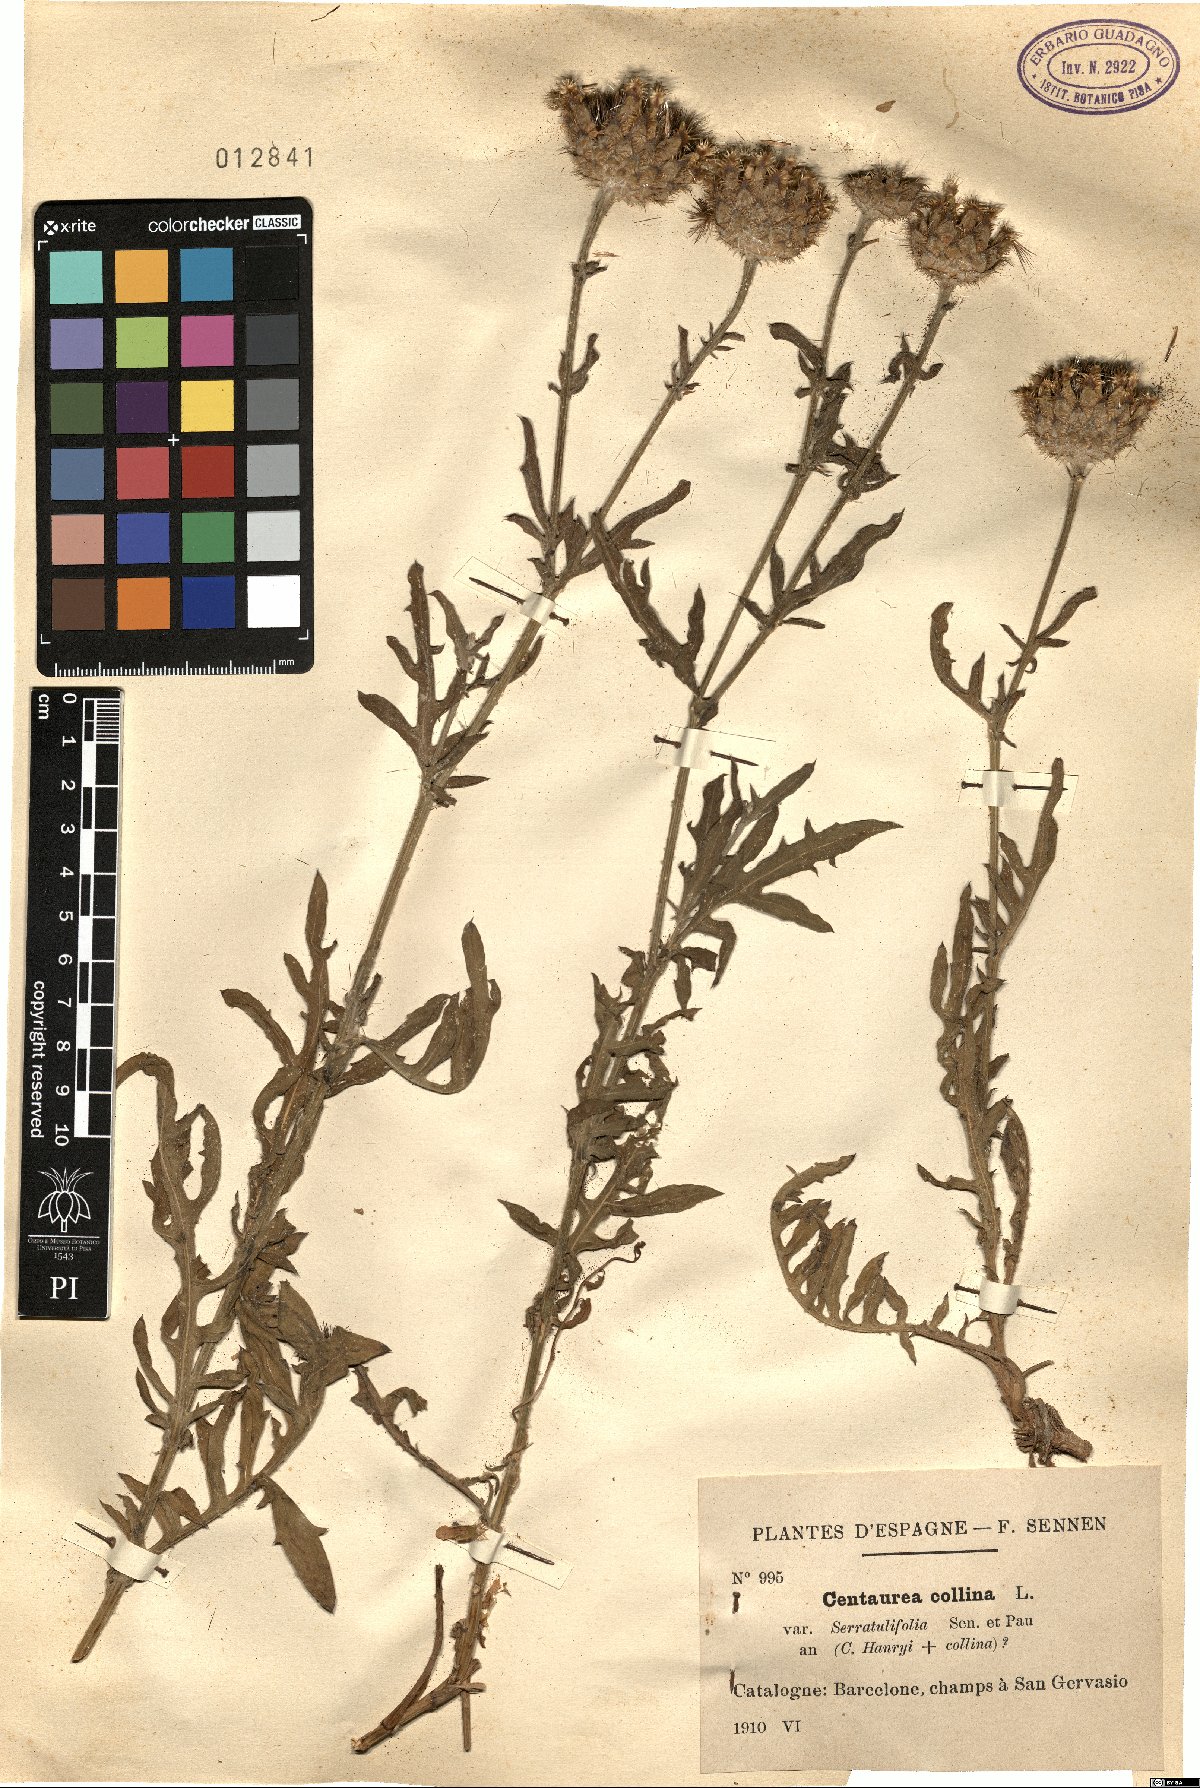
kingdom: Plantae
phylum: Tracheophyta
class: Magnoliopsida
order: Asterales
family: Asteraceae
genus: Centaurea
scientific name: Centaurea basilei
